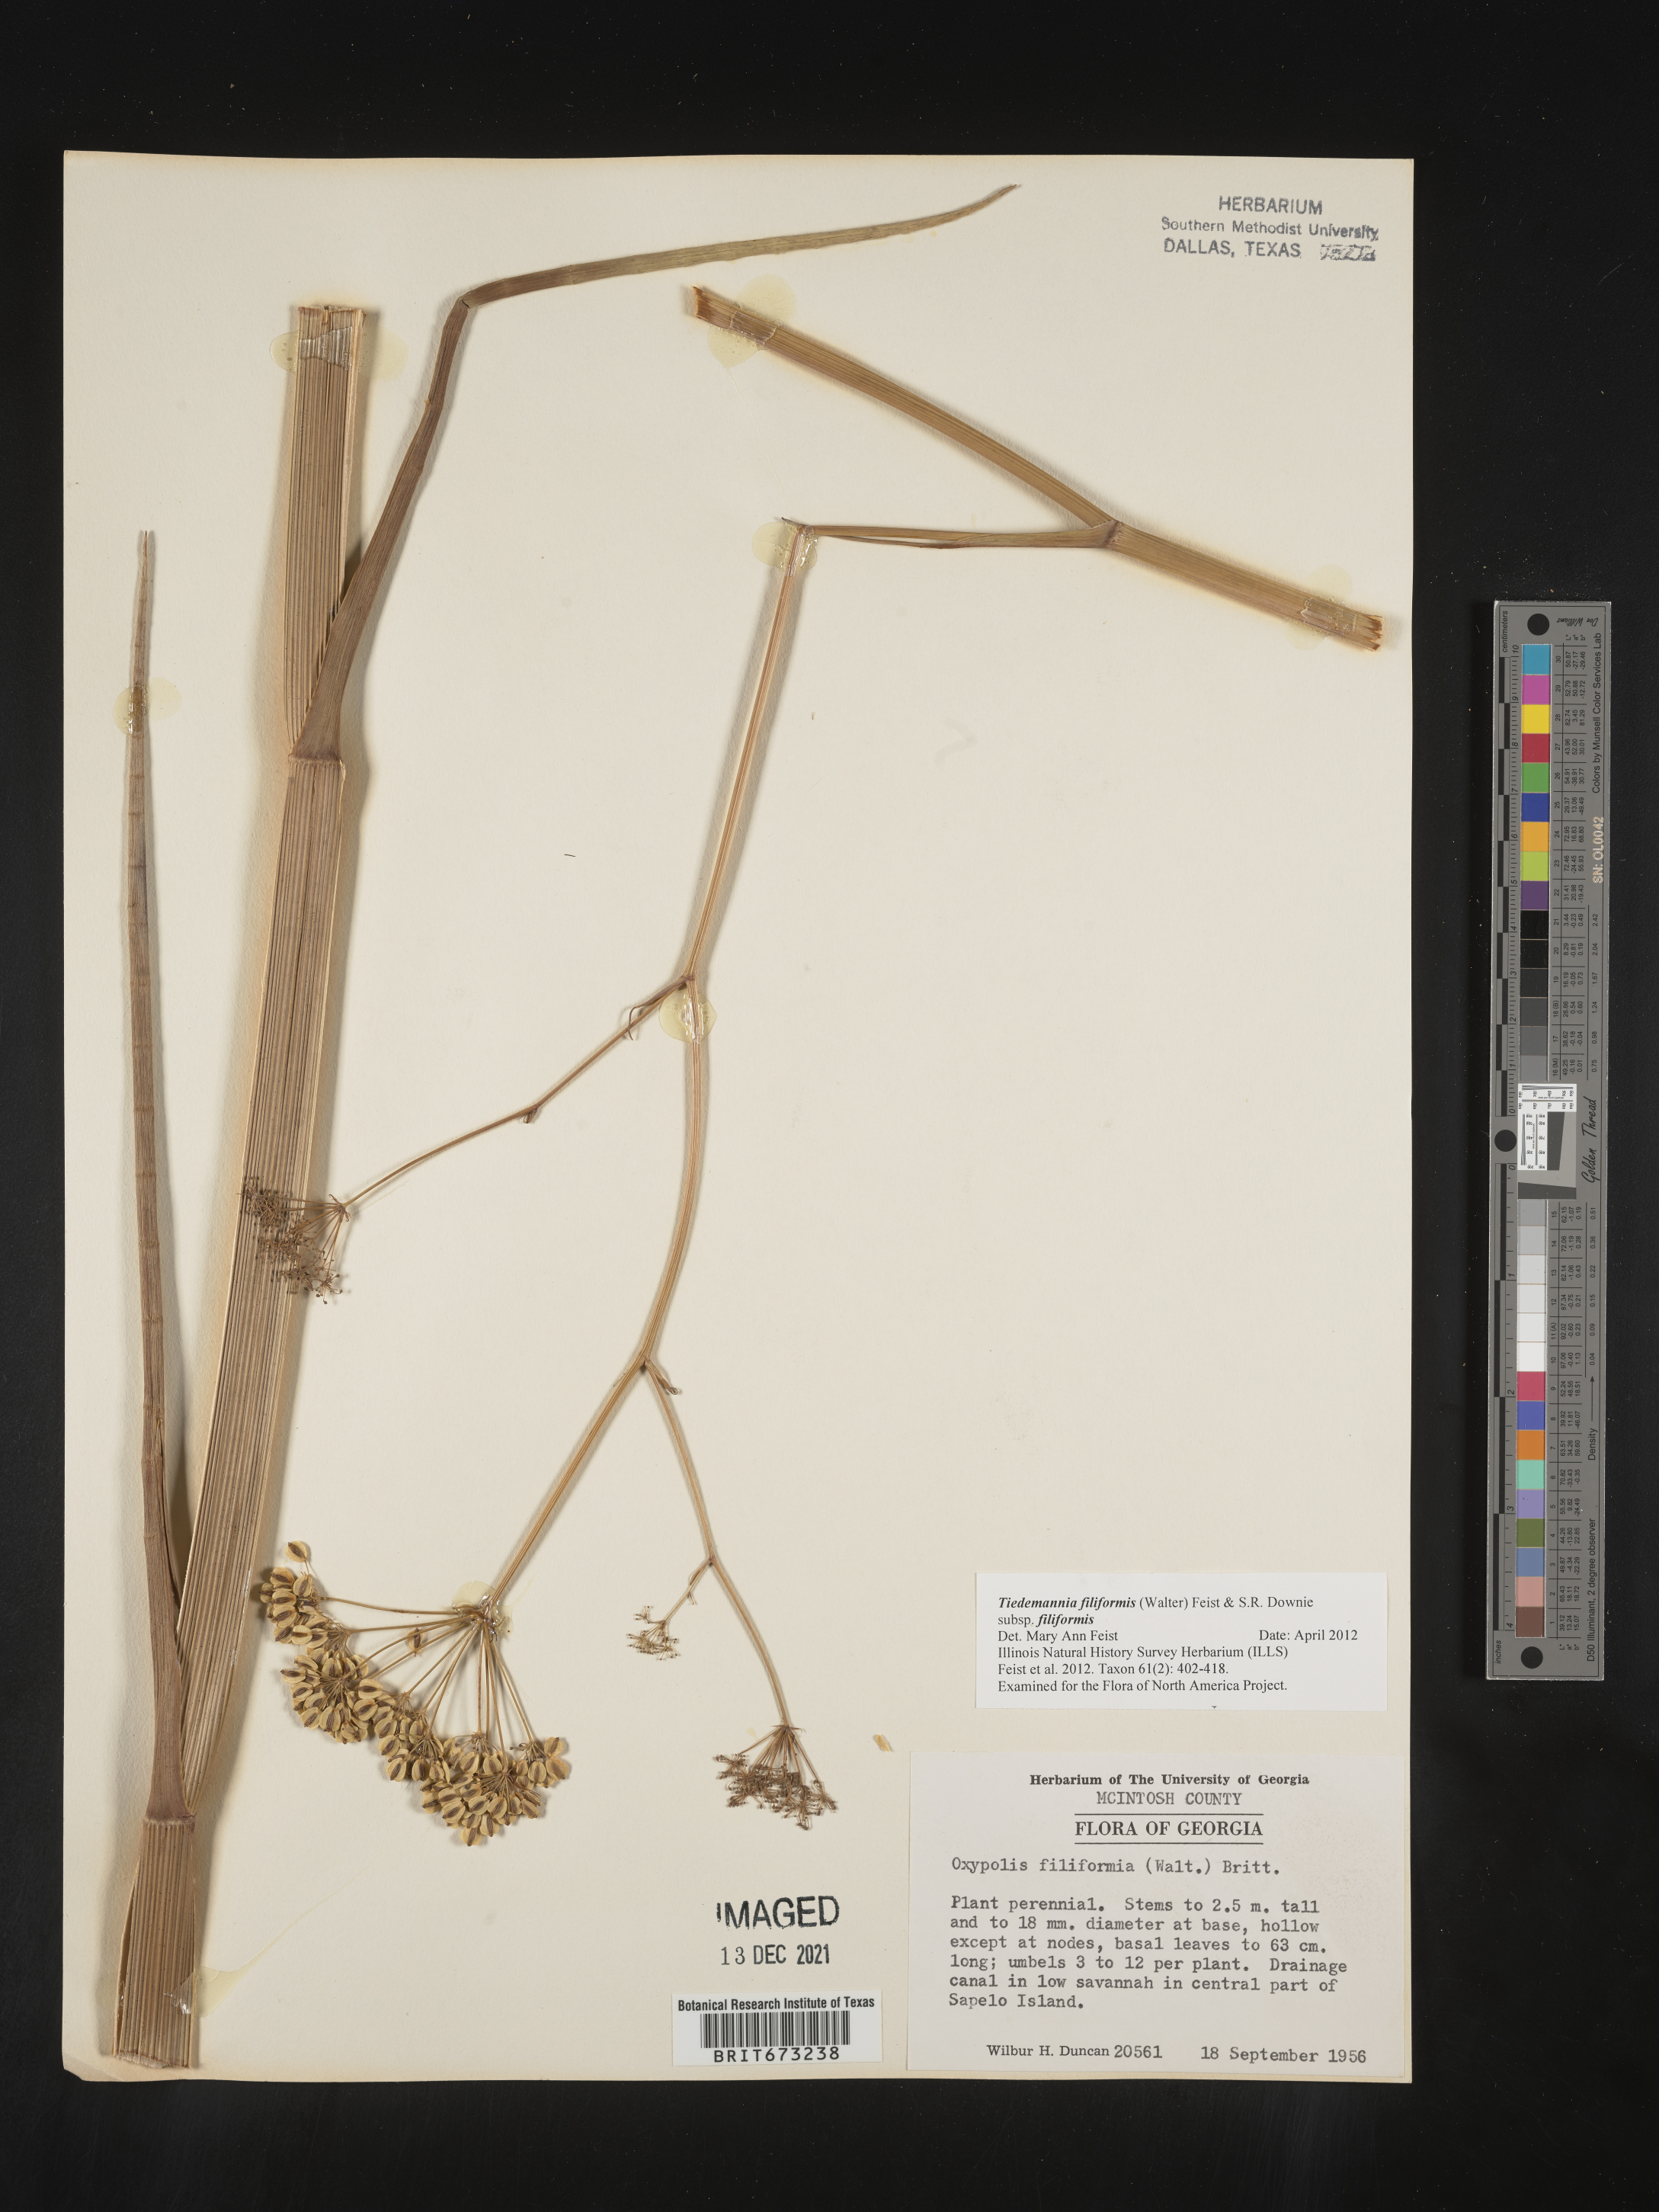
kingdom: Plantae
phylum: Tracheophyta
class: Magnoliopsida
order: Apiales
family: Apiaceae
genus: Tiedemannia
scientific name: Tiedemannia
